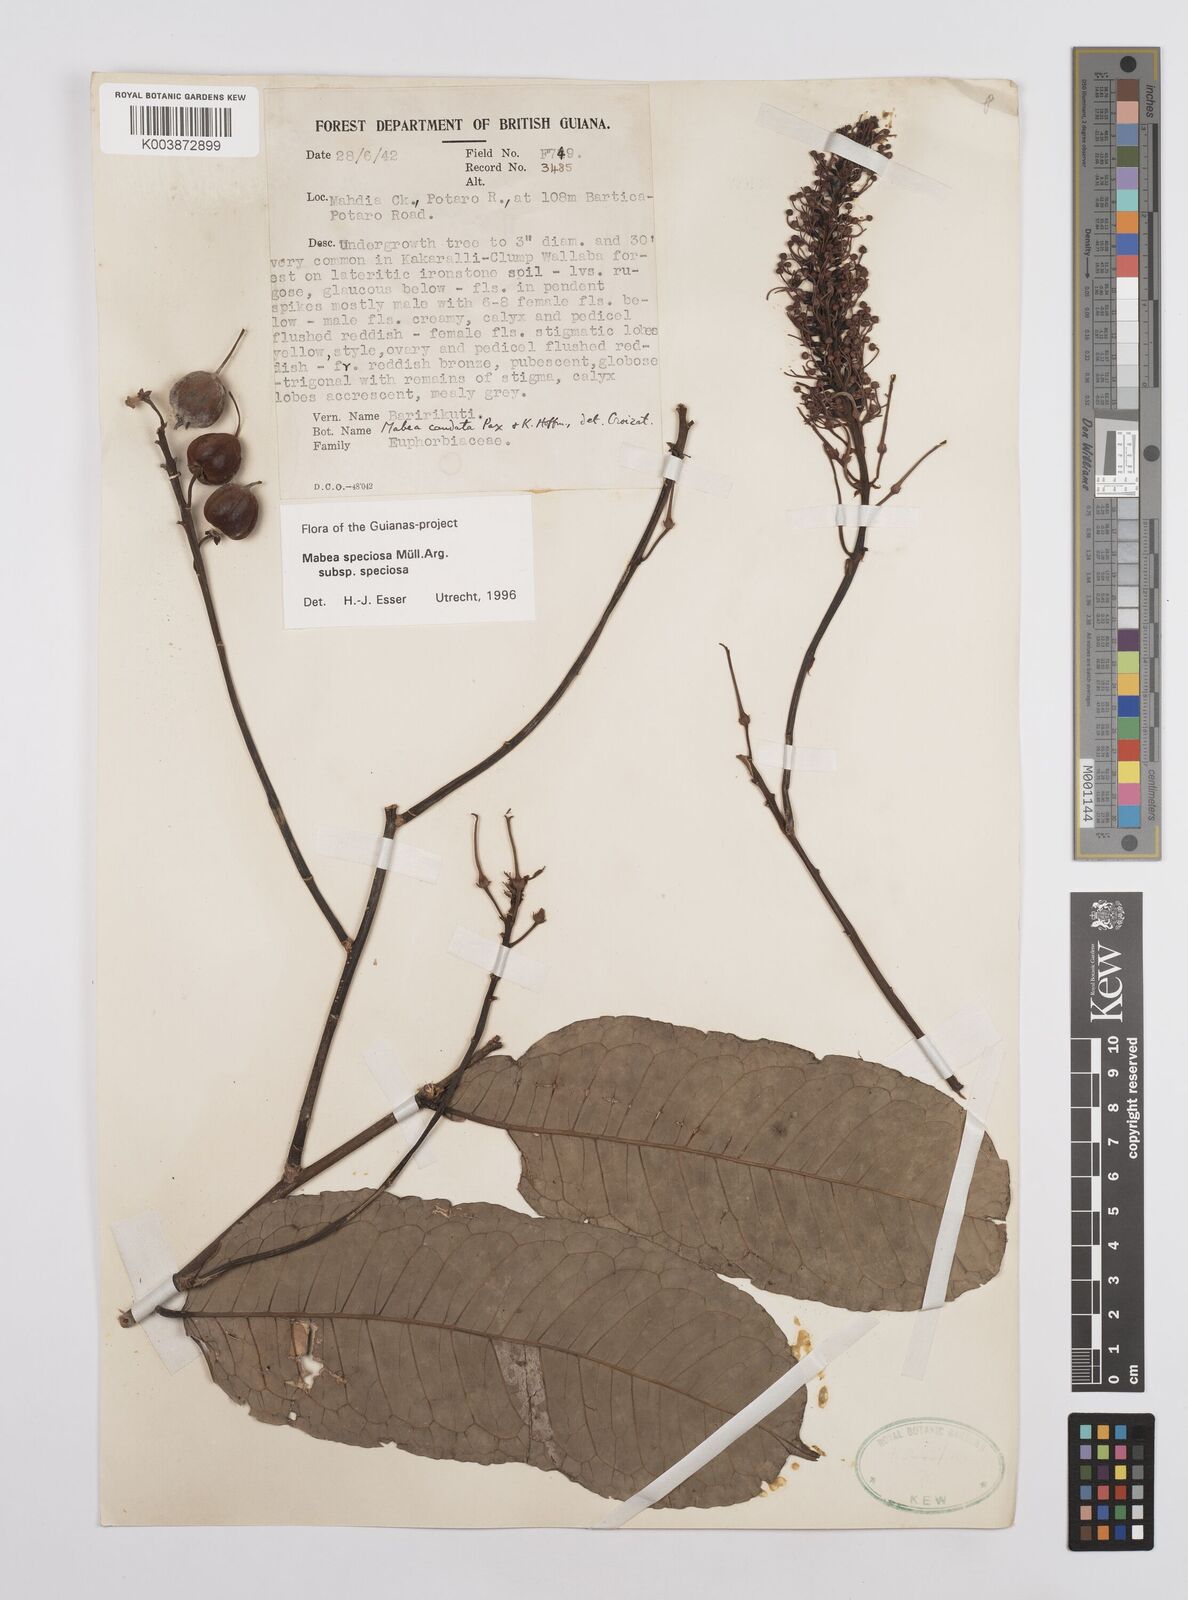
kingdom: Plantae
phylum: Tracheophyta
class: Magnoliopsida
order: Malpighiales
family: Euphorbiaceae
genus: Mabea
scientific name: Mabea speciosa
